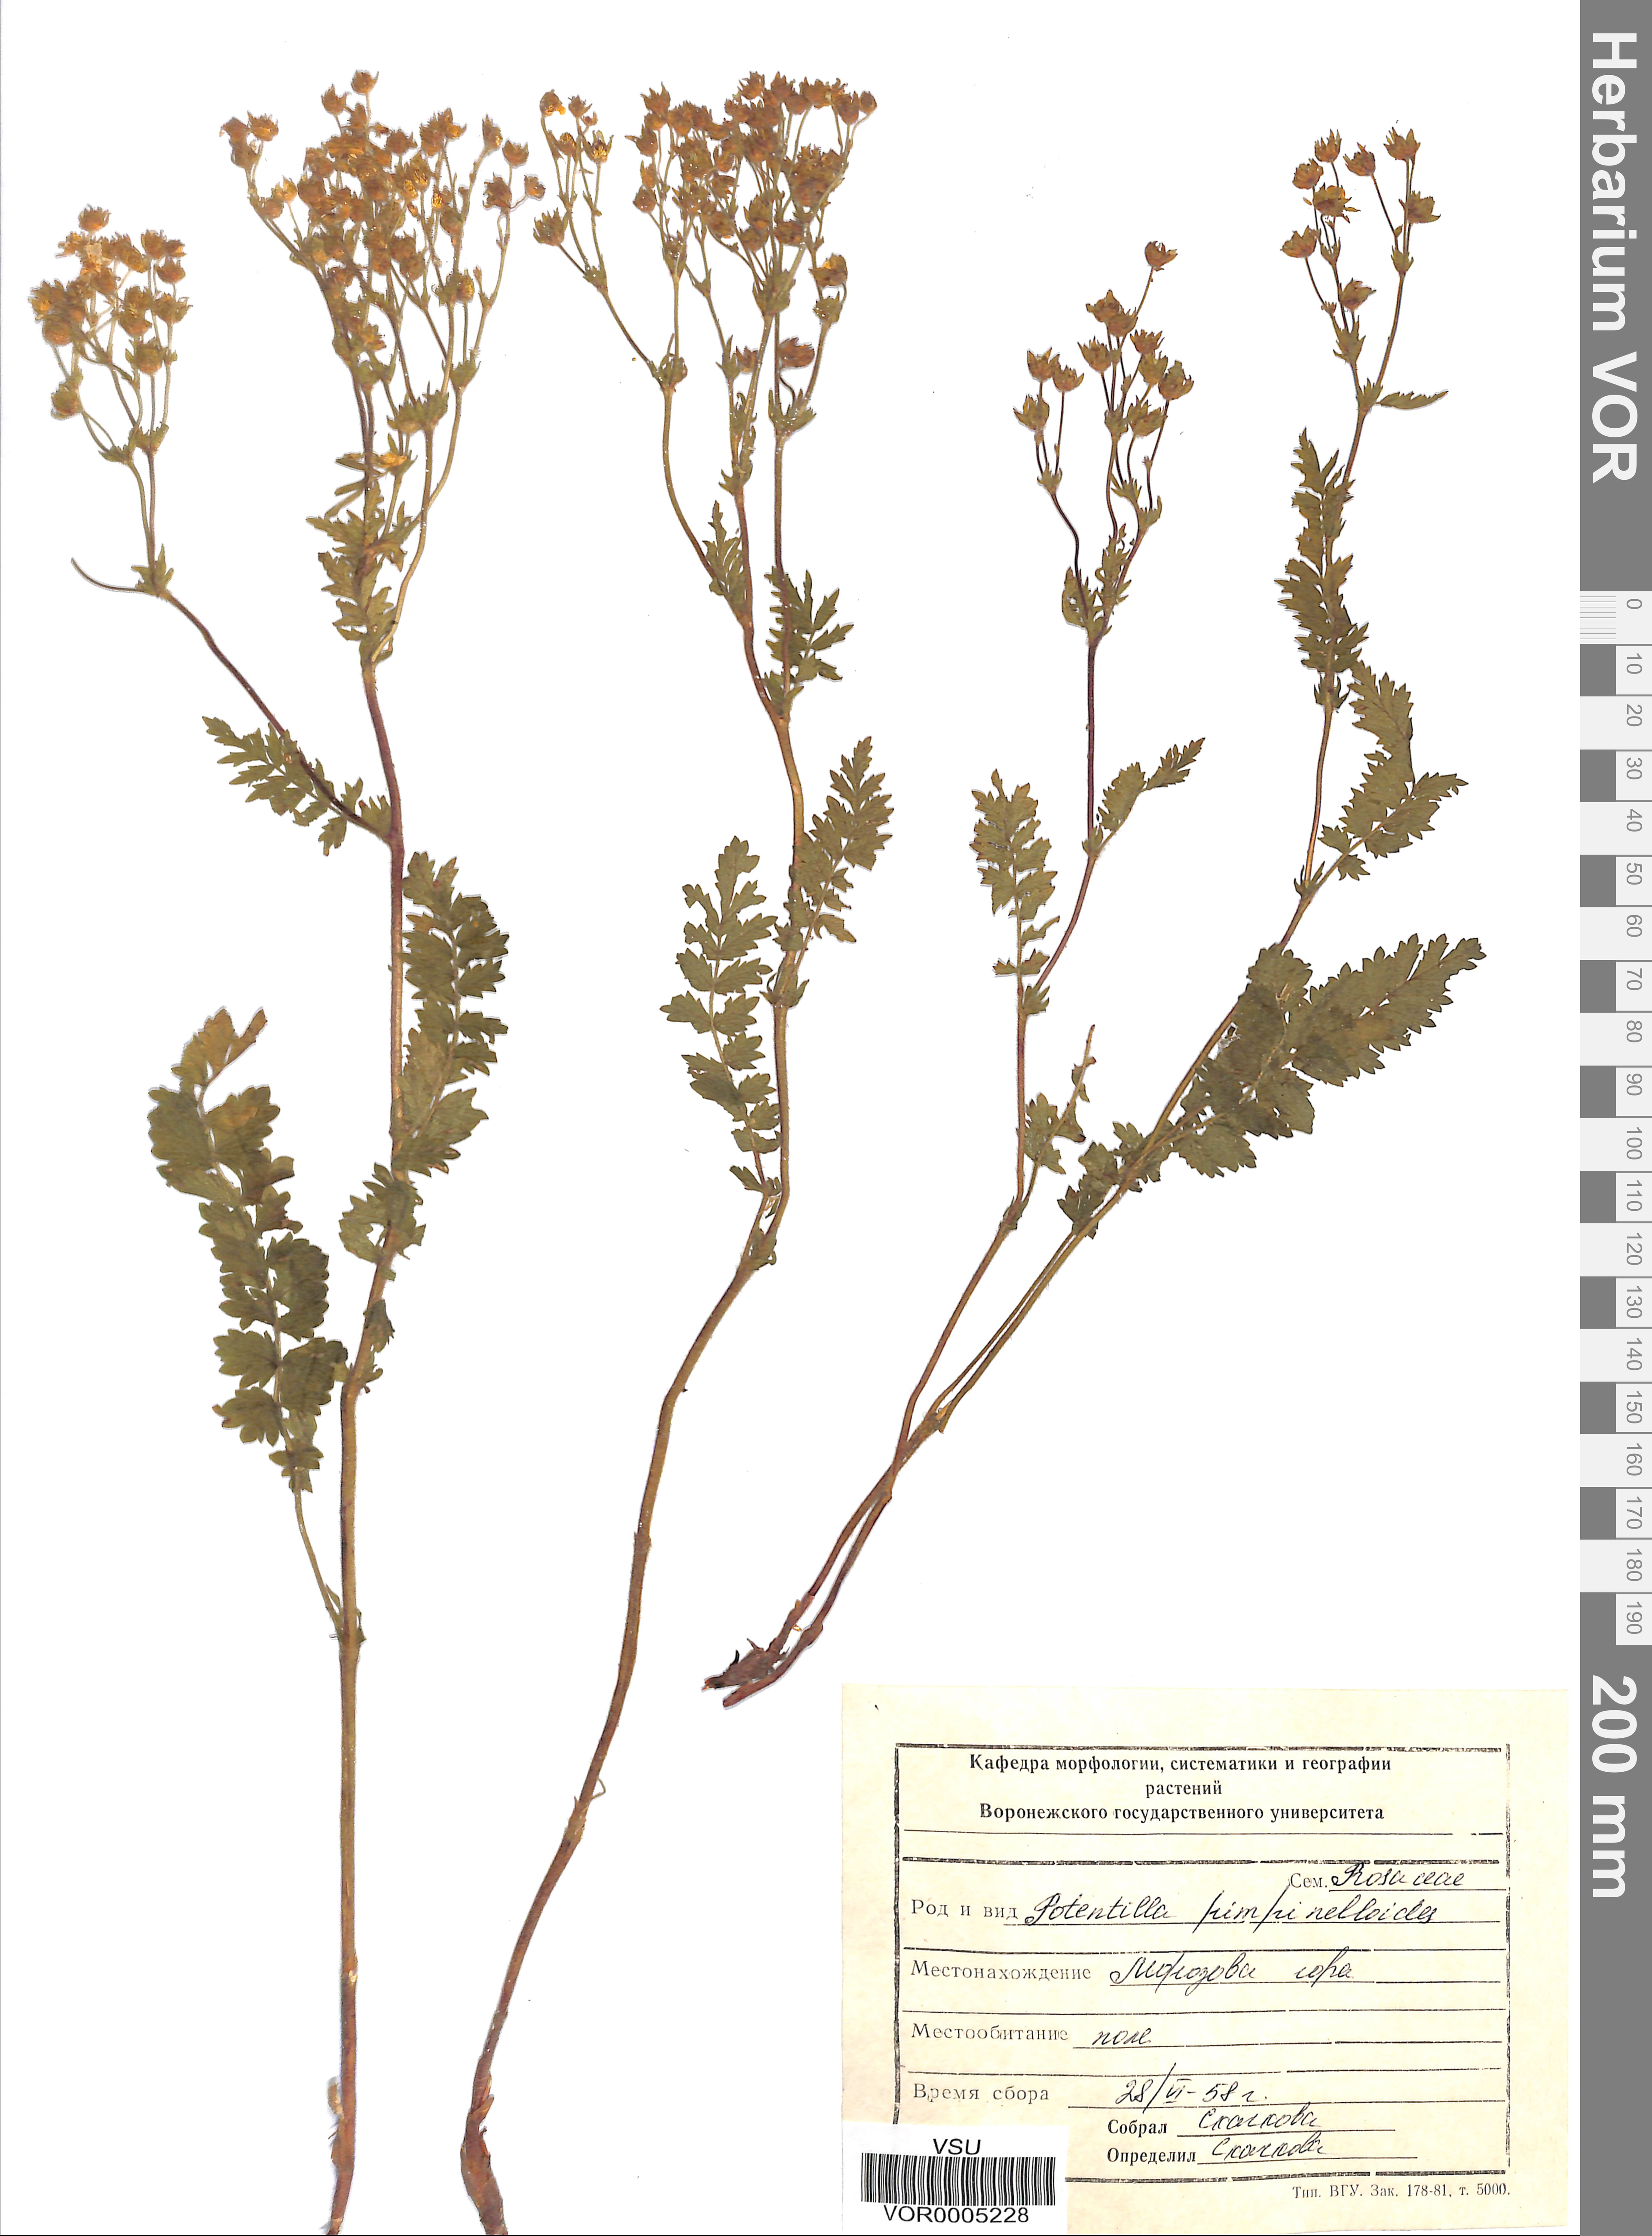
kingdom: Plantae
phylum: Tracheophyta
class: Magnoliopsida
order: Rosales
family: Rosaceae
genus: Potentilla
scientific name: Potentilla pimpinelloides
